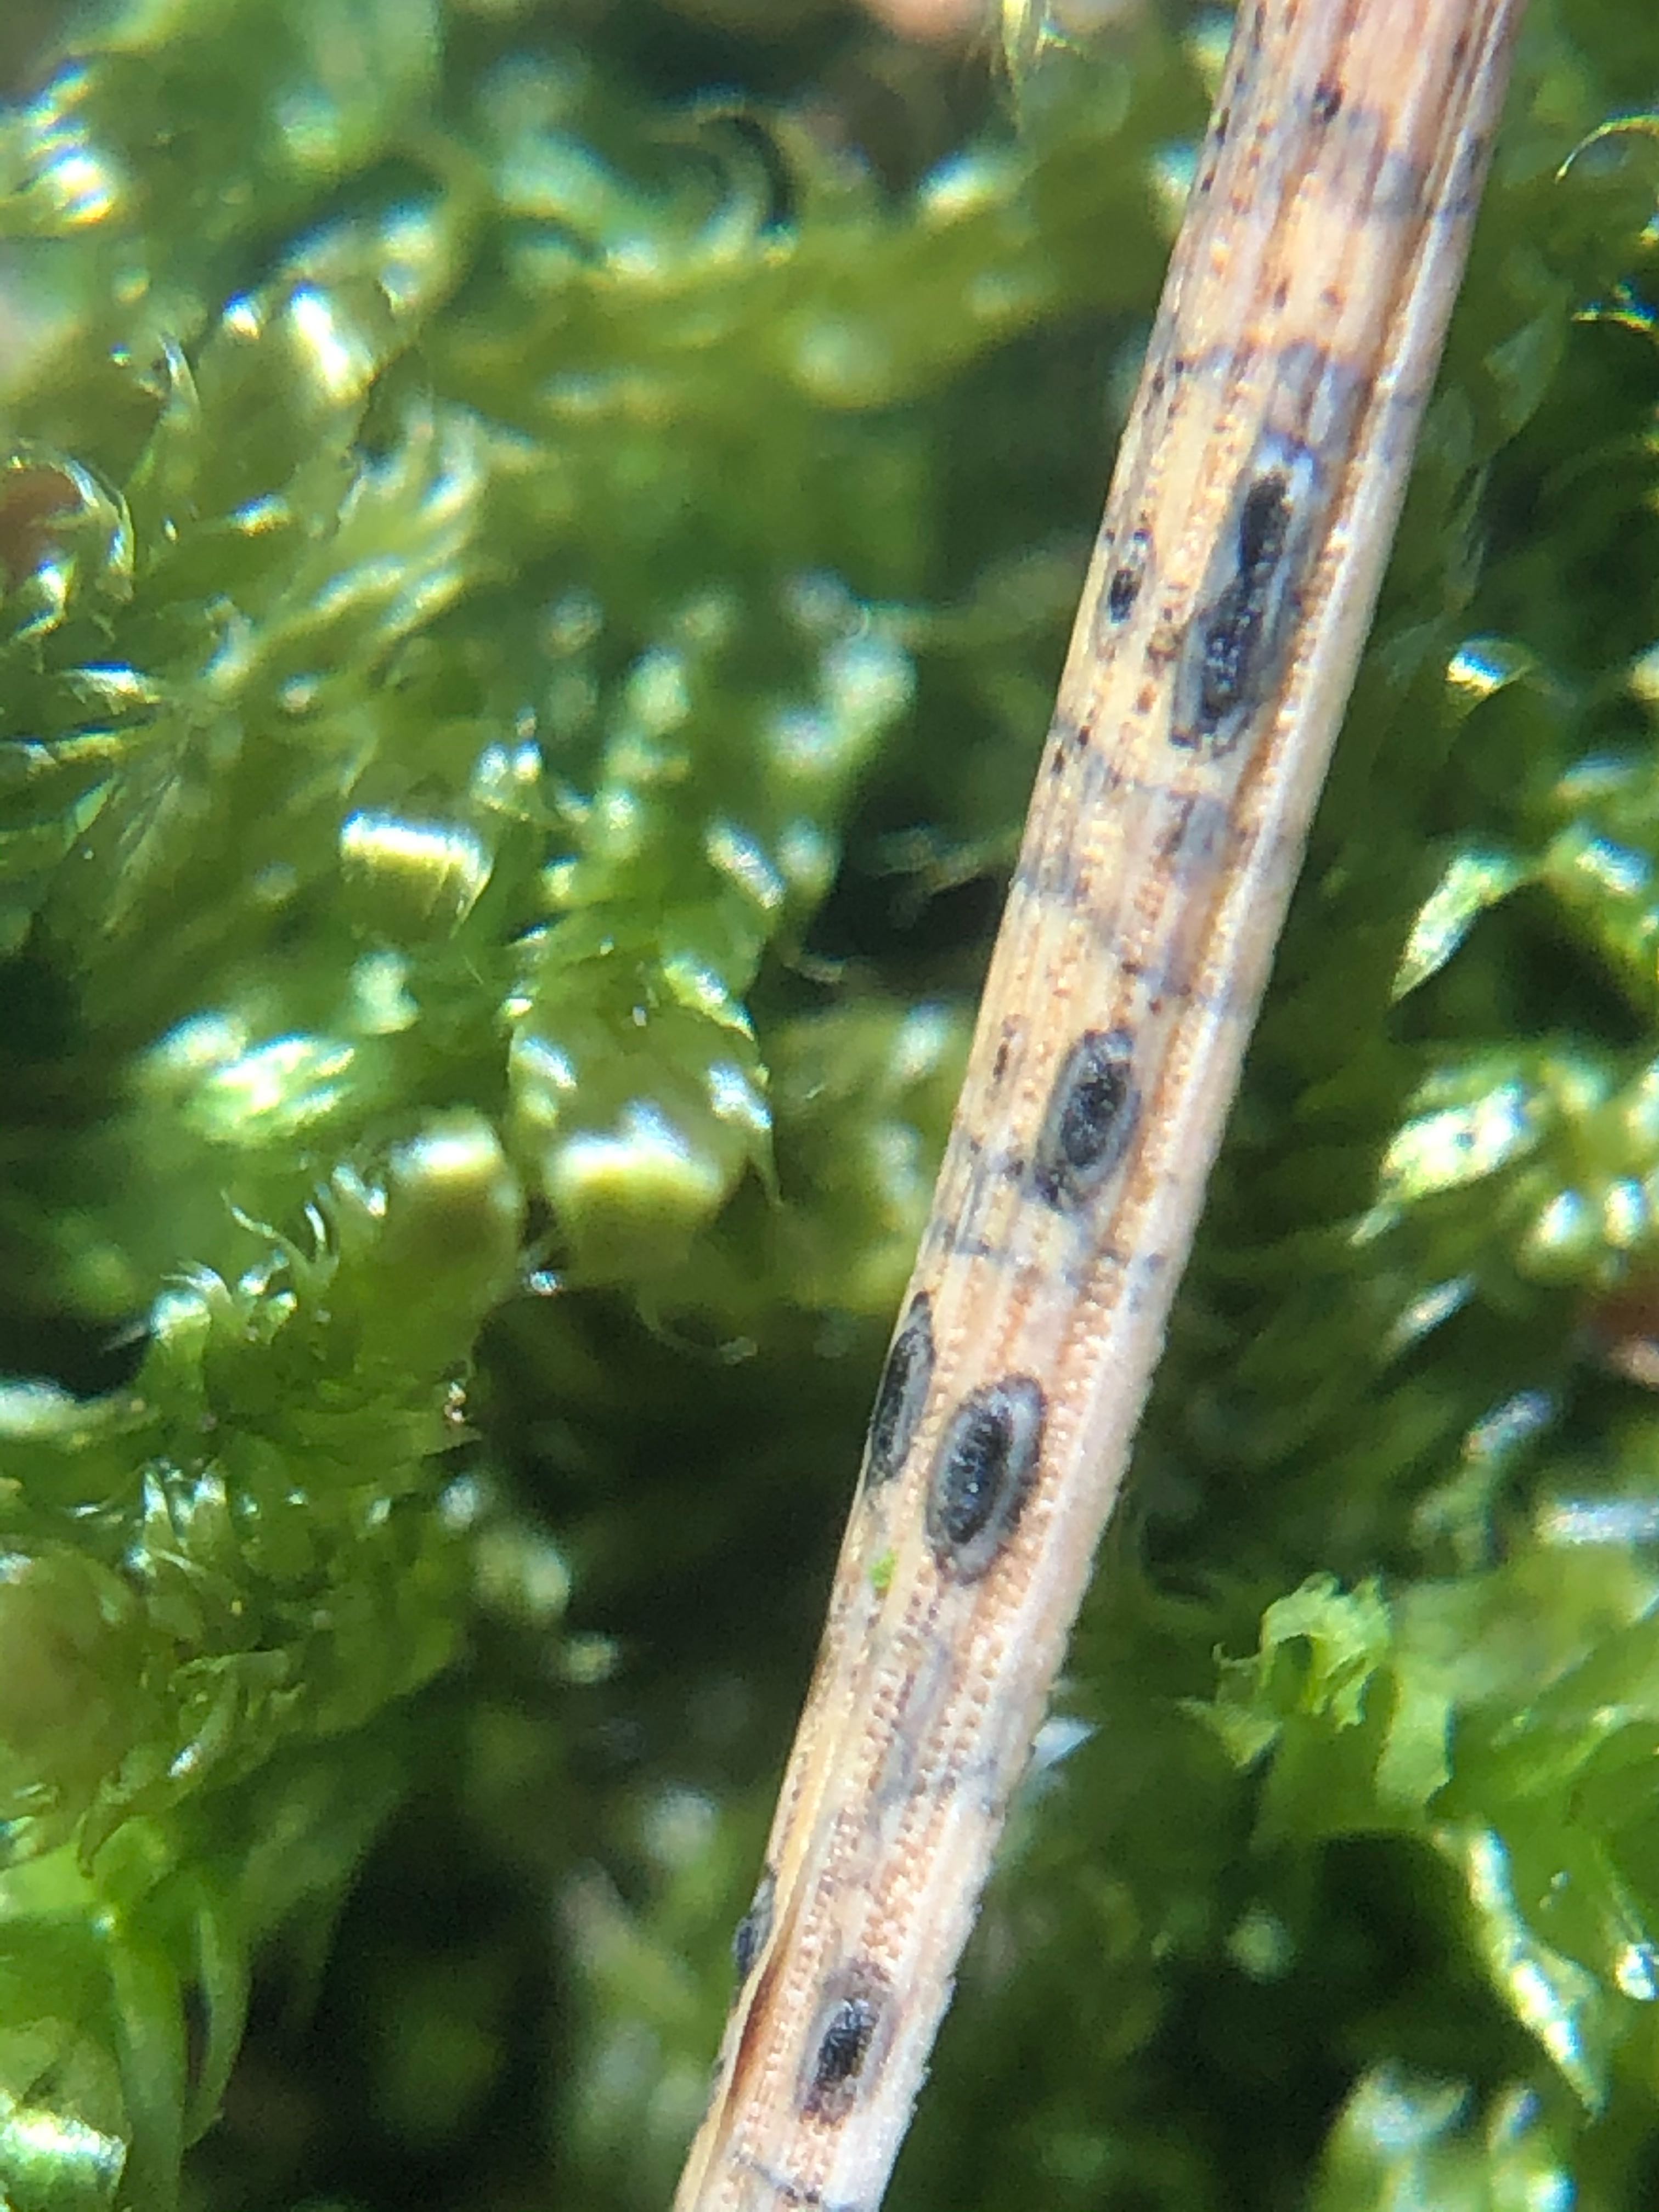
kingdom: Fungi
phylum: Ascomycota
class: Leotiomycetes
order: Rhytismatales
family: Rhytismataceae
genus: Lophodermium
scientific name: Lophodermium pinastri
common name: fyrre-fureplet
